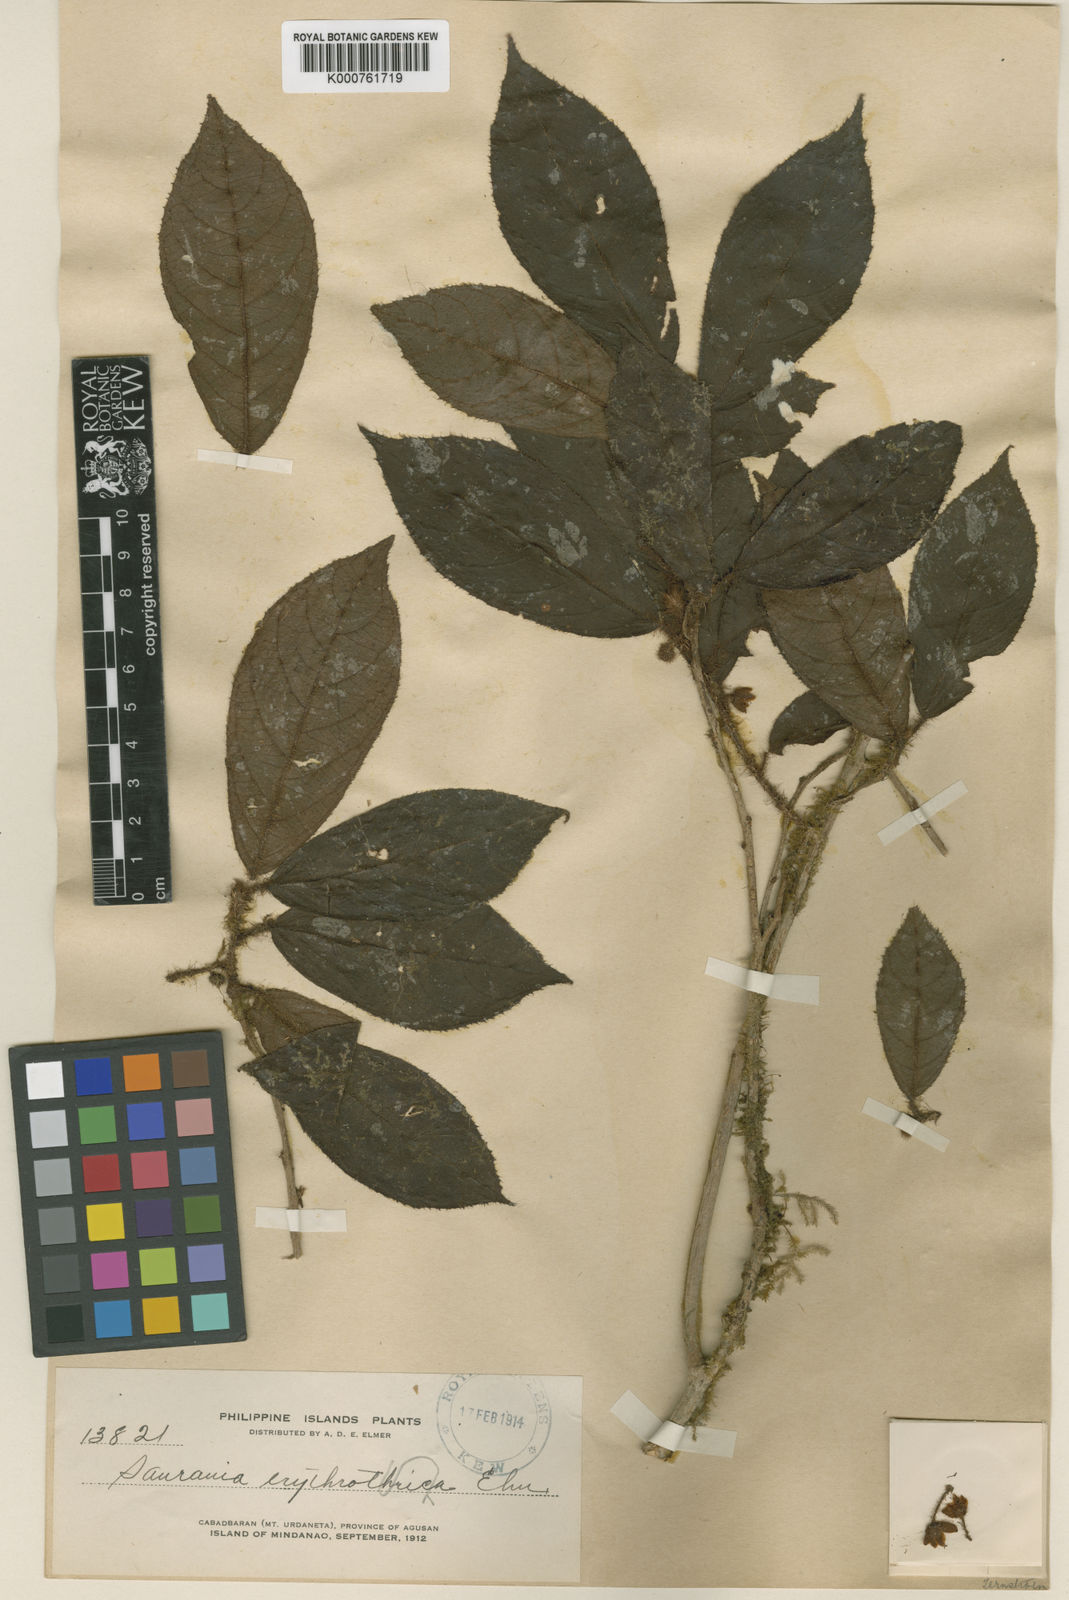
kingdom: Plantae
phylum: Tracheophyta
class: Magnoliopsida
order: Ericales
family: Actinidiaceae
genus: Saurauia
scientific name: Saurauia erythrothrica
